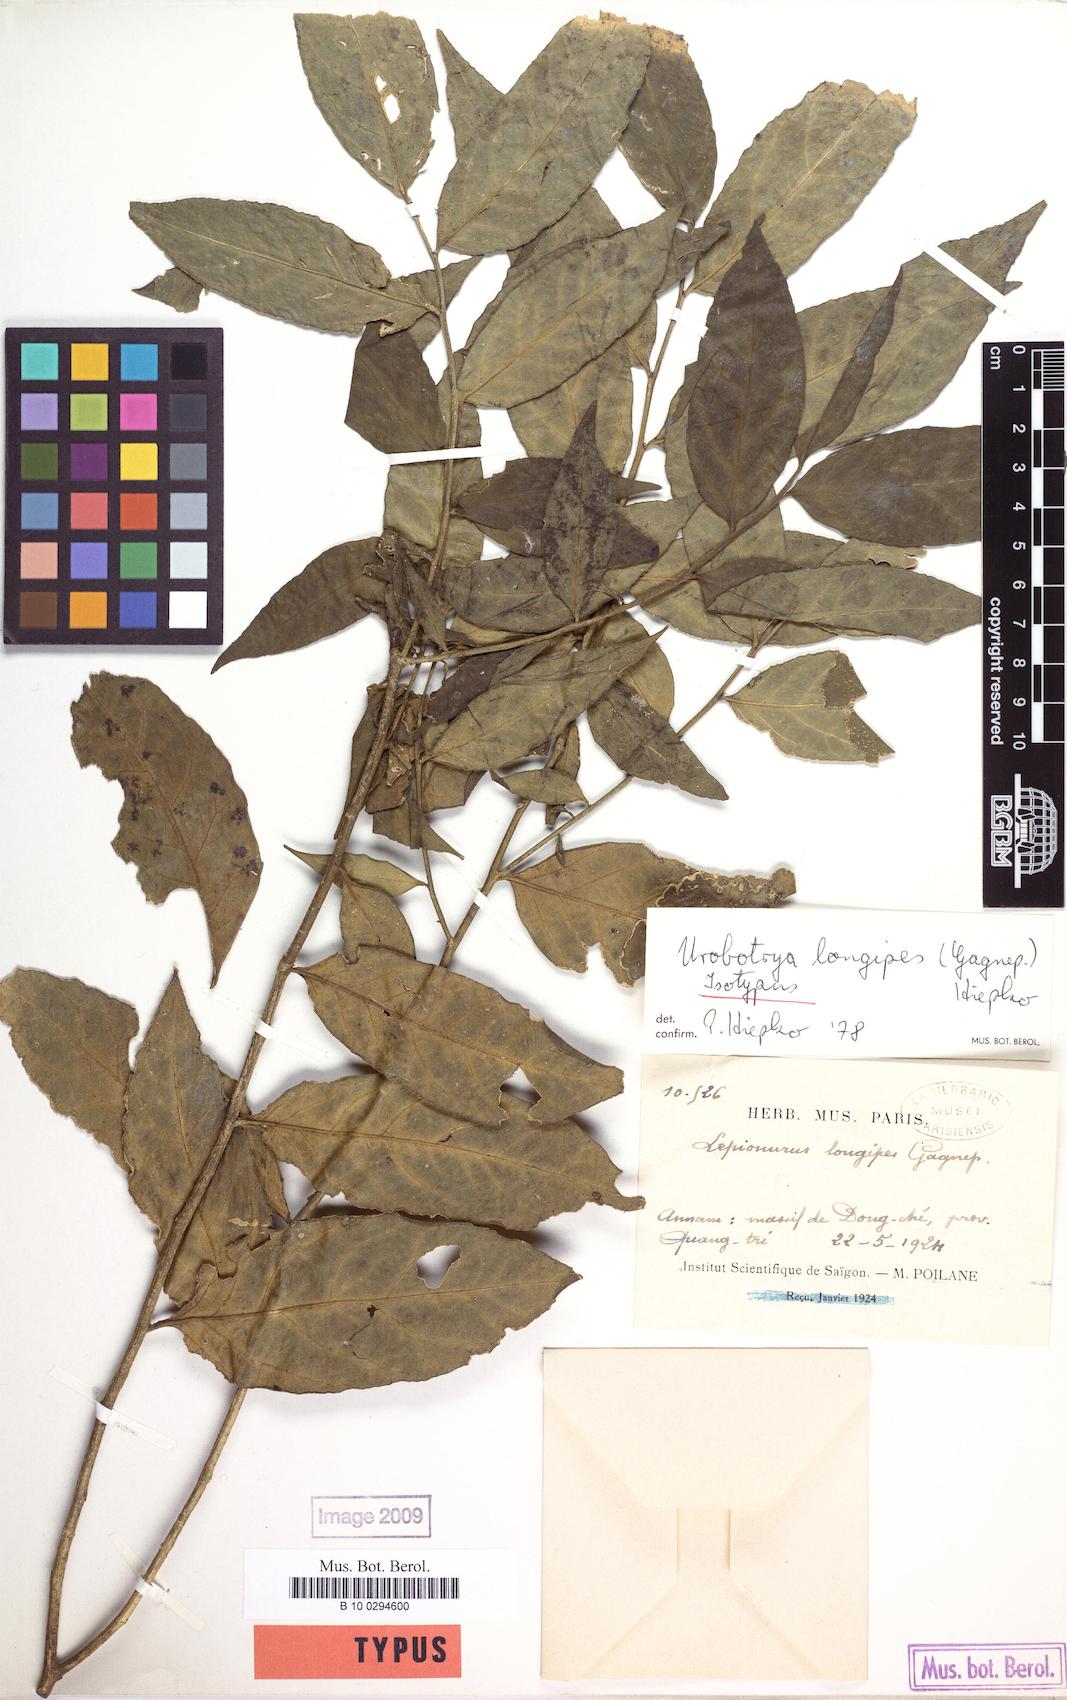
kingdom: Plantae
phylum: Tracheophyta
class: Magnoliopsida
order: Santalales
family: Opiliaceae
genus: Urobotrya
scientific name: Urobotrya longipes
